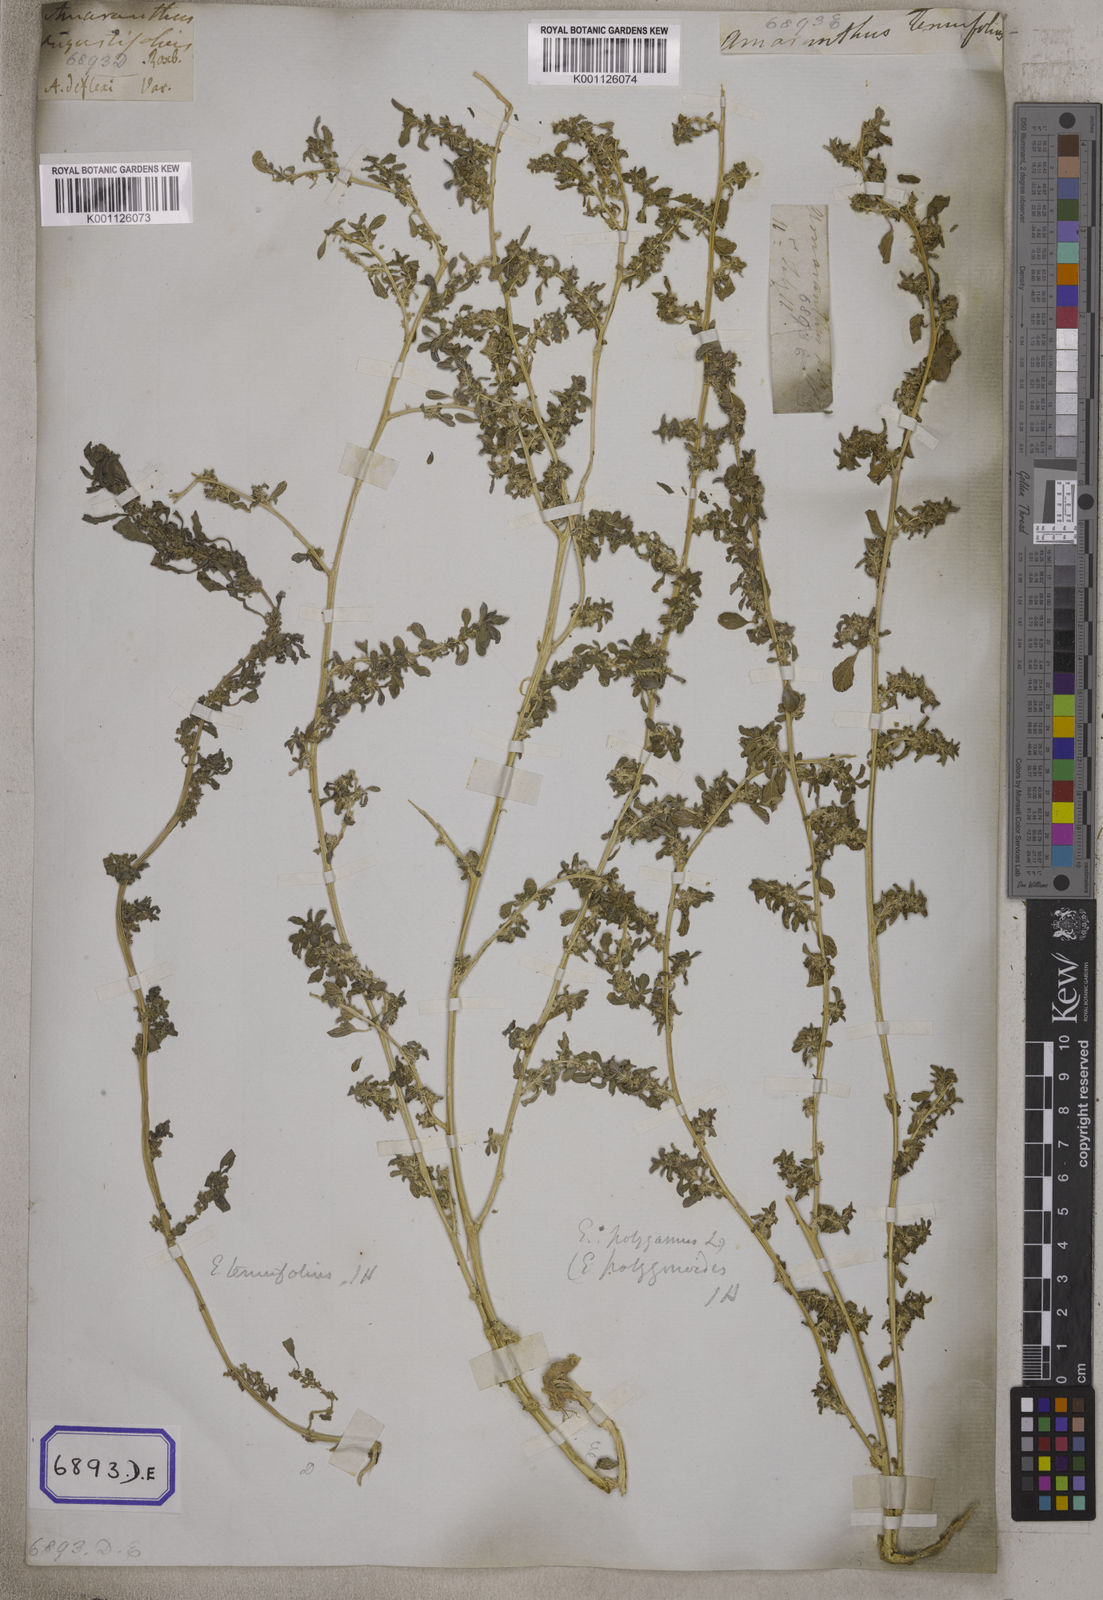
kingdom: Plantae
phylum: Tracheophyta
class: Magnoliopsida
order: Caryophyllales
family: Amaranthaceae
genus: Amaranthus
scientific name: Amaranthus
